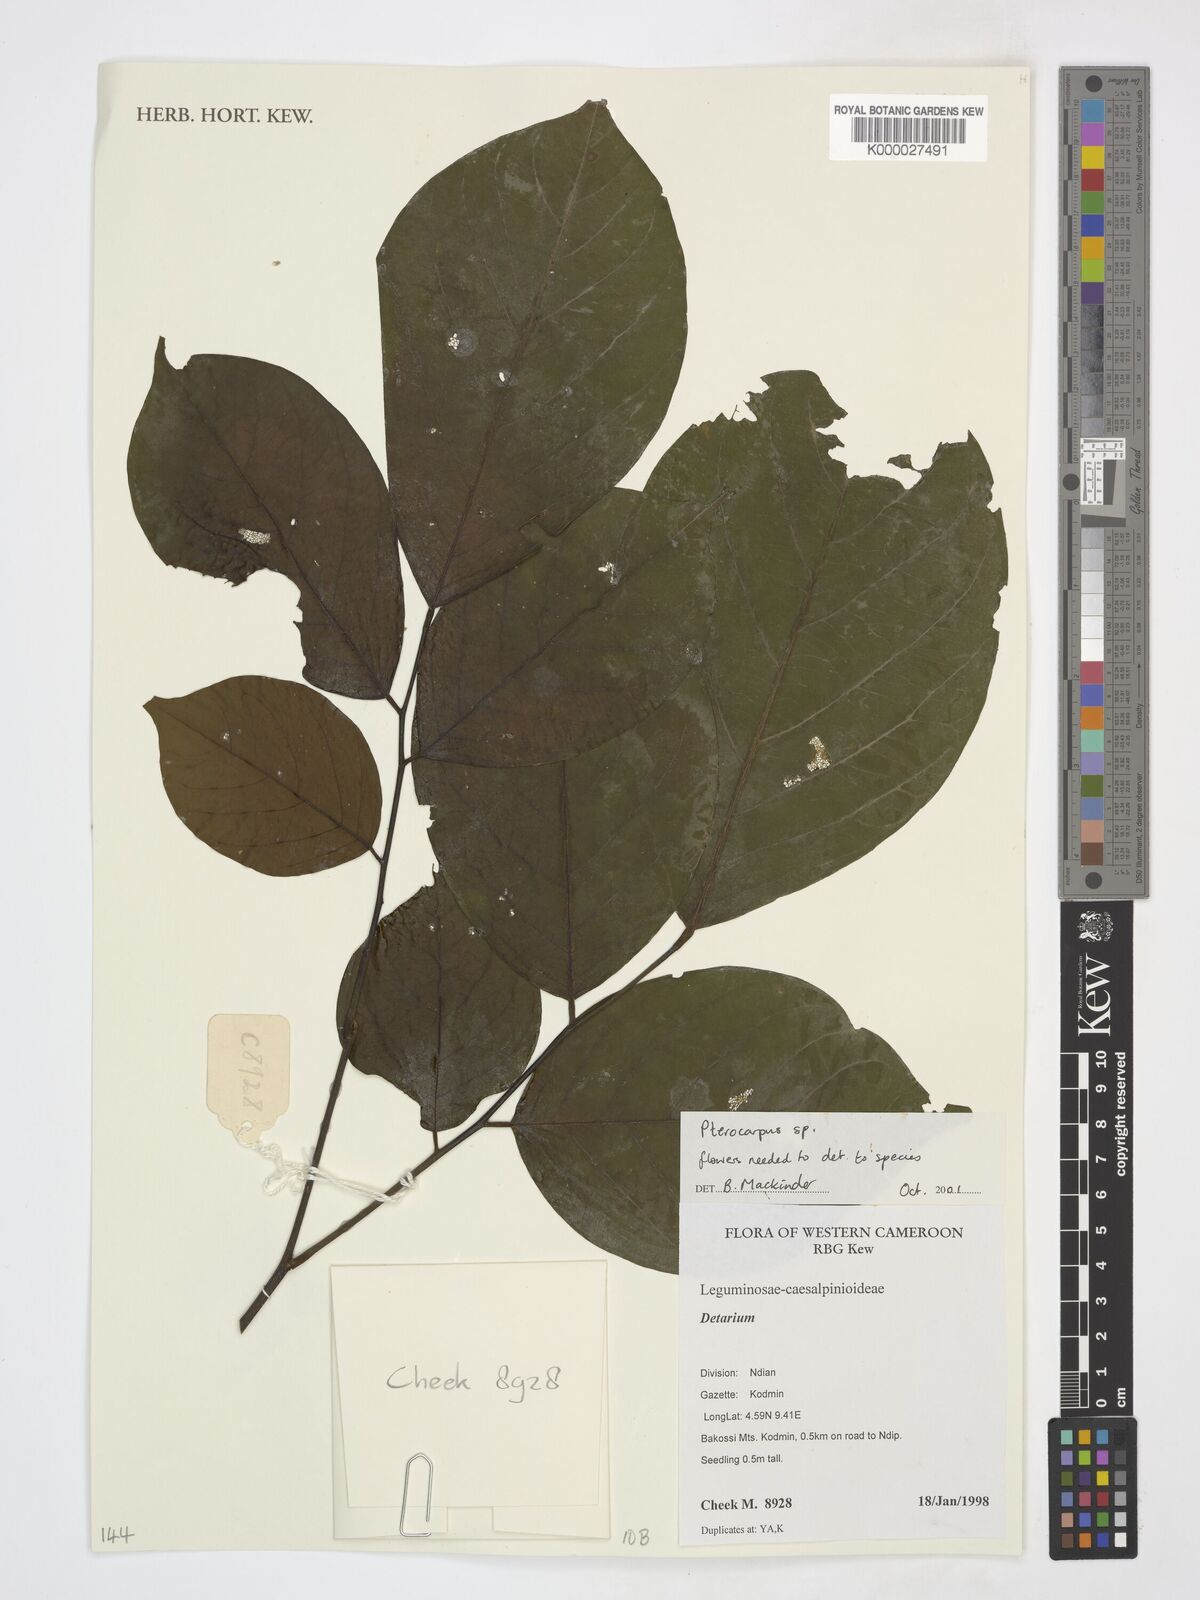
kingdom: Plantae
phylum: Tracheophyta
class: Magnoliopsida
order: Fabales
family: Fabaceae
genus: Pterocarpus
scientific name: Pterocarpus
